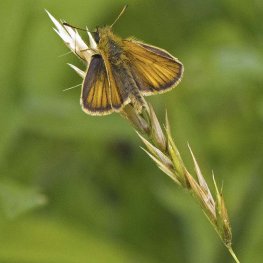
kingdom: Animalia
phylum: Arthropoda
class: Insecta
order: Lepidoptera
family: Hesperiidae
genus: Thymelicus
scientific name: Thymelicus lineola
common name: European Skipper
